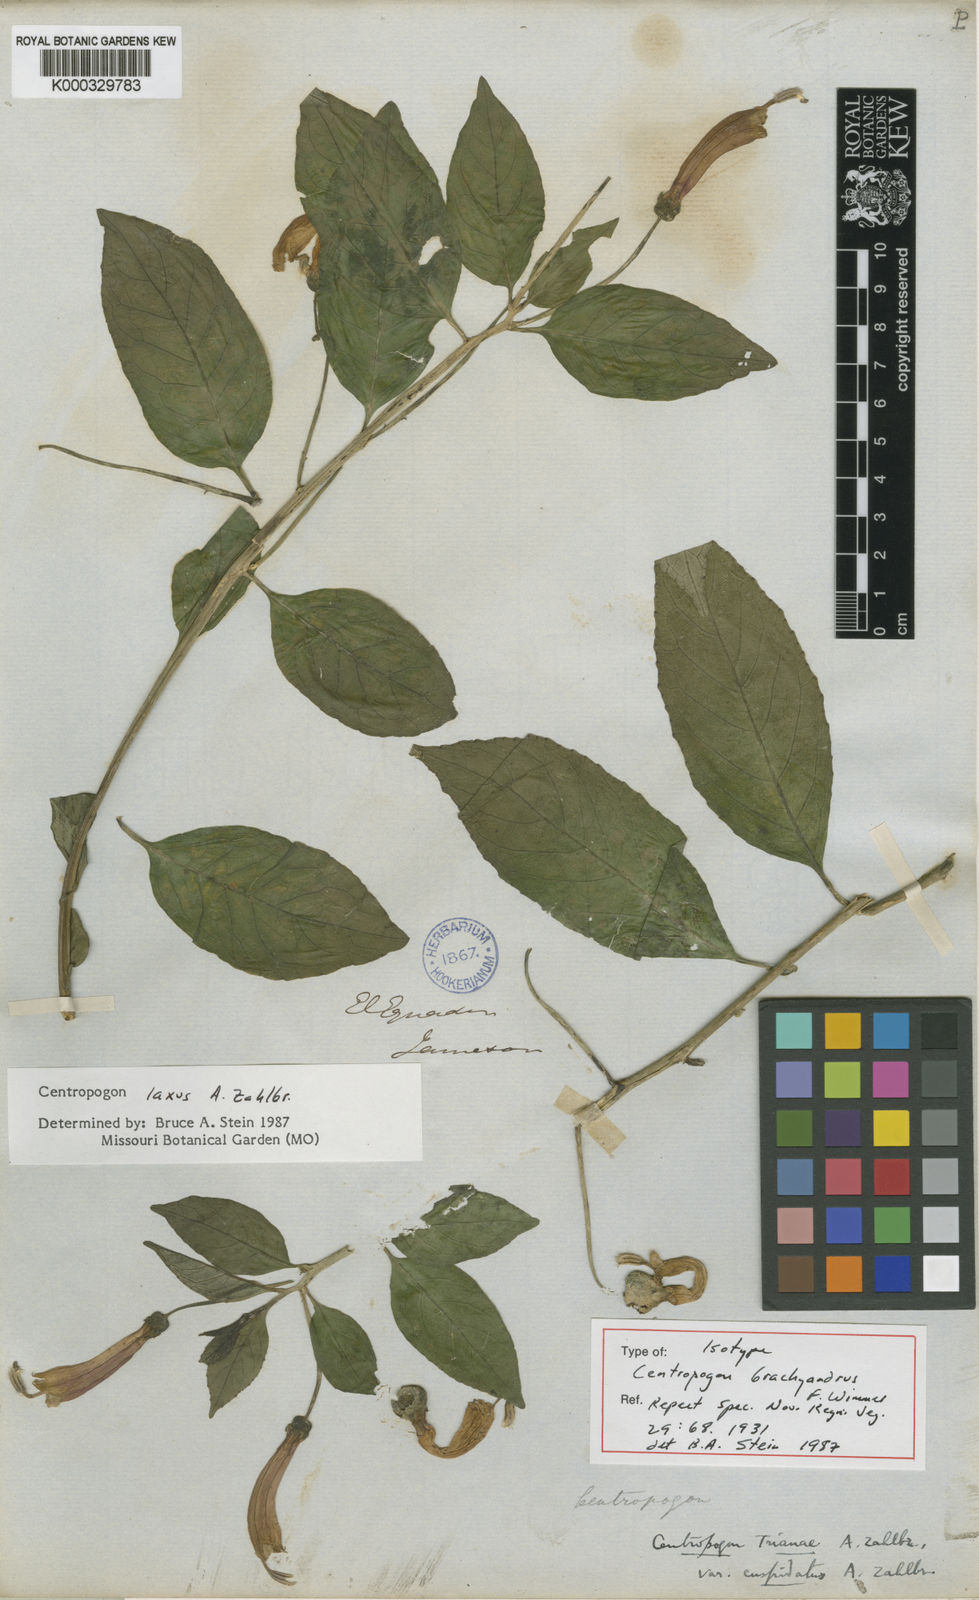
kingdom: Plantae
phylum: Tracheophyta
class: Magnoliopsida
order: Asterales
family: Campanulaceae
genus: Centropogon
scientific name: Centropogon laxus
